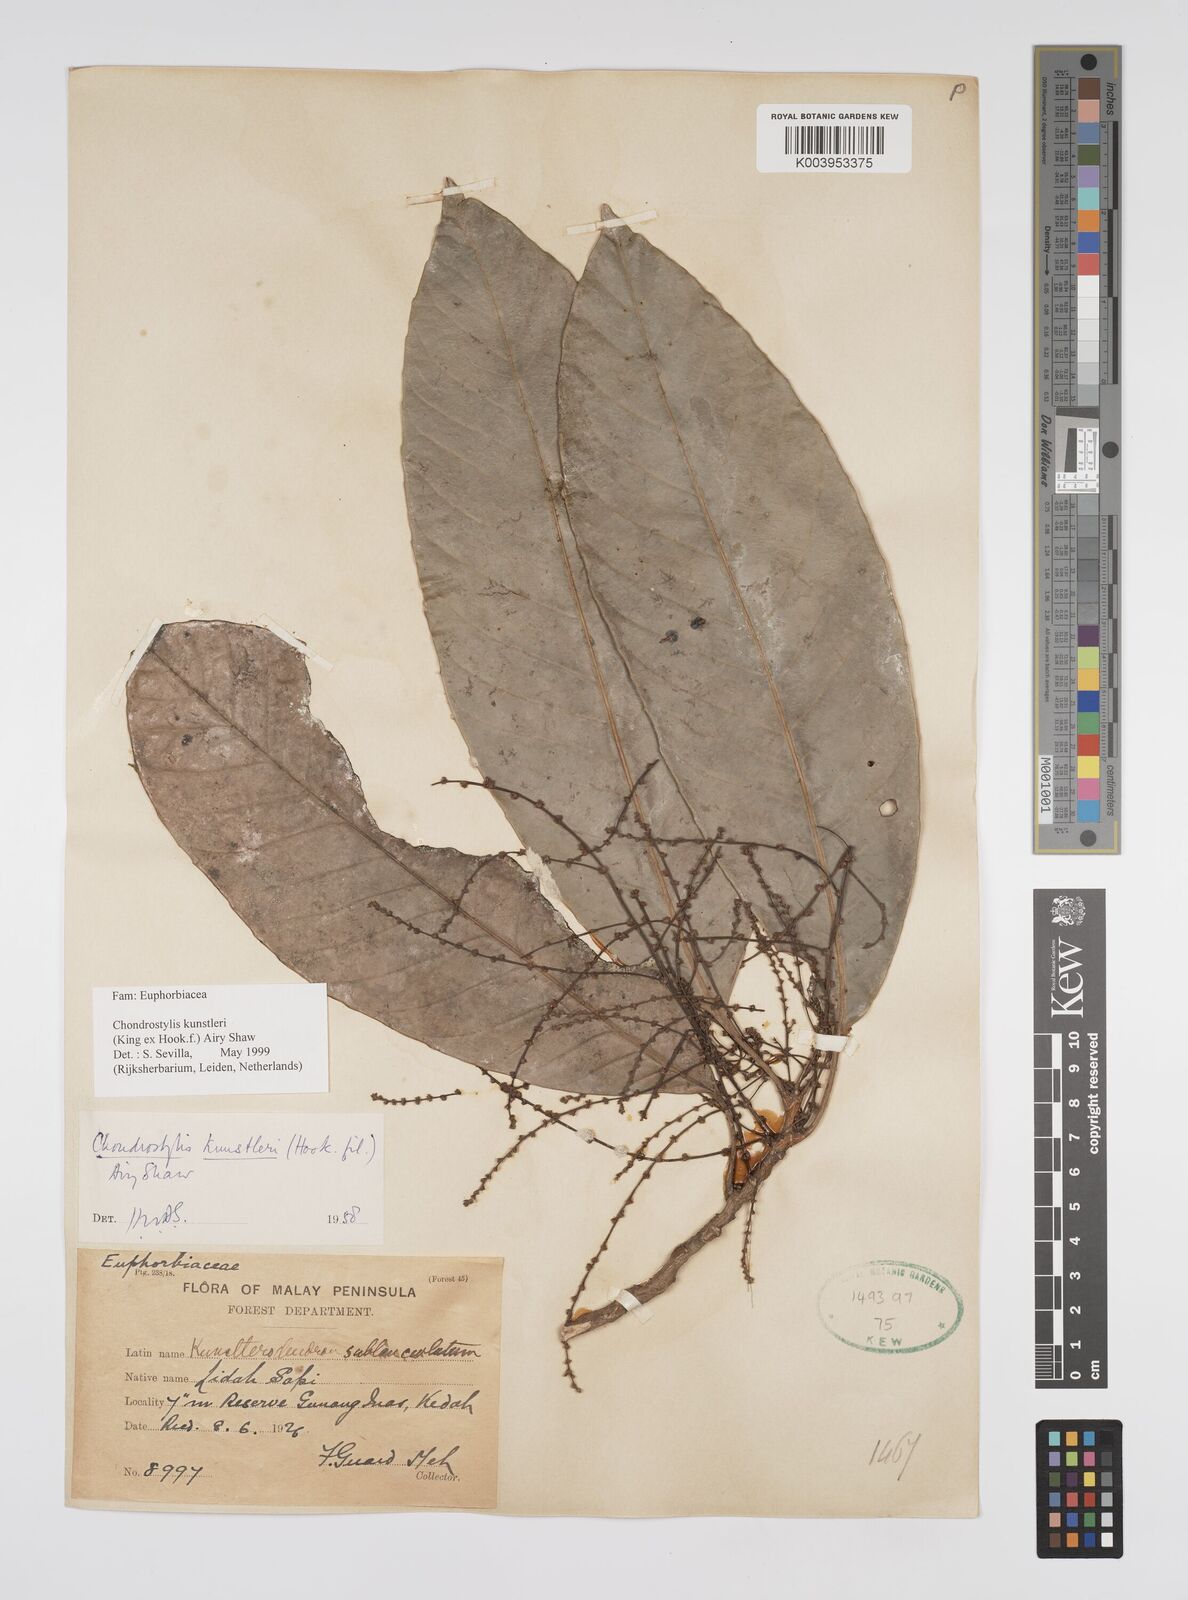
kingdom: Plantae
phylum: Tracheophyta
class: Magnoliopsida
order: Malpighiales
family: Euphorbiaceae
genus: Chondrostylis
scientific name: Chondrostylis kunstleri
